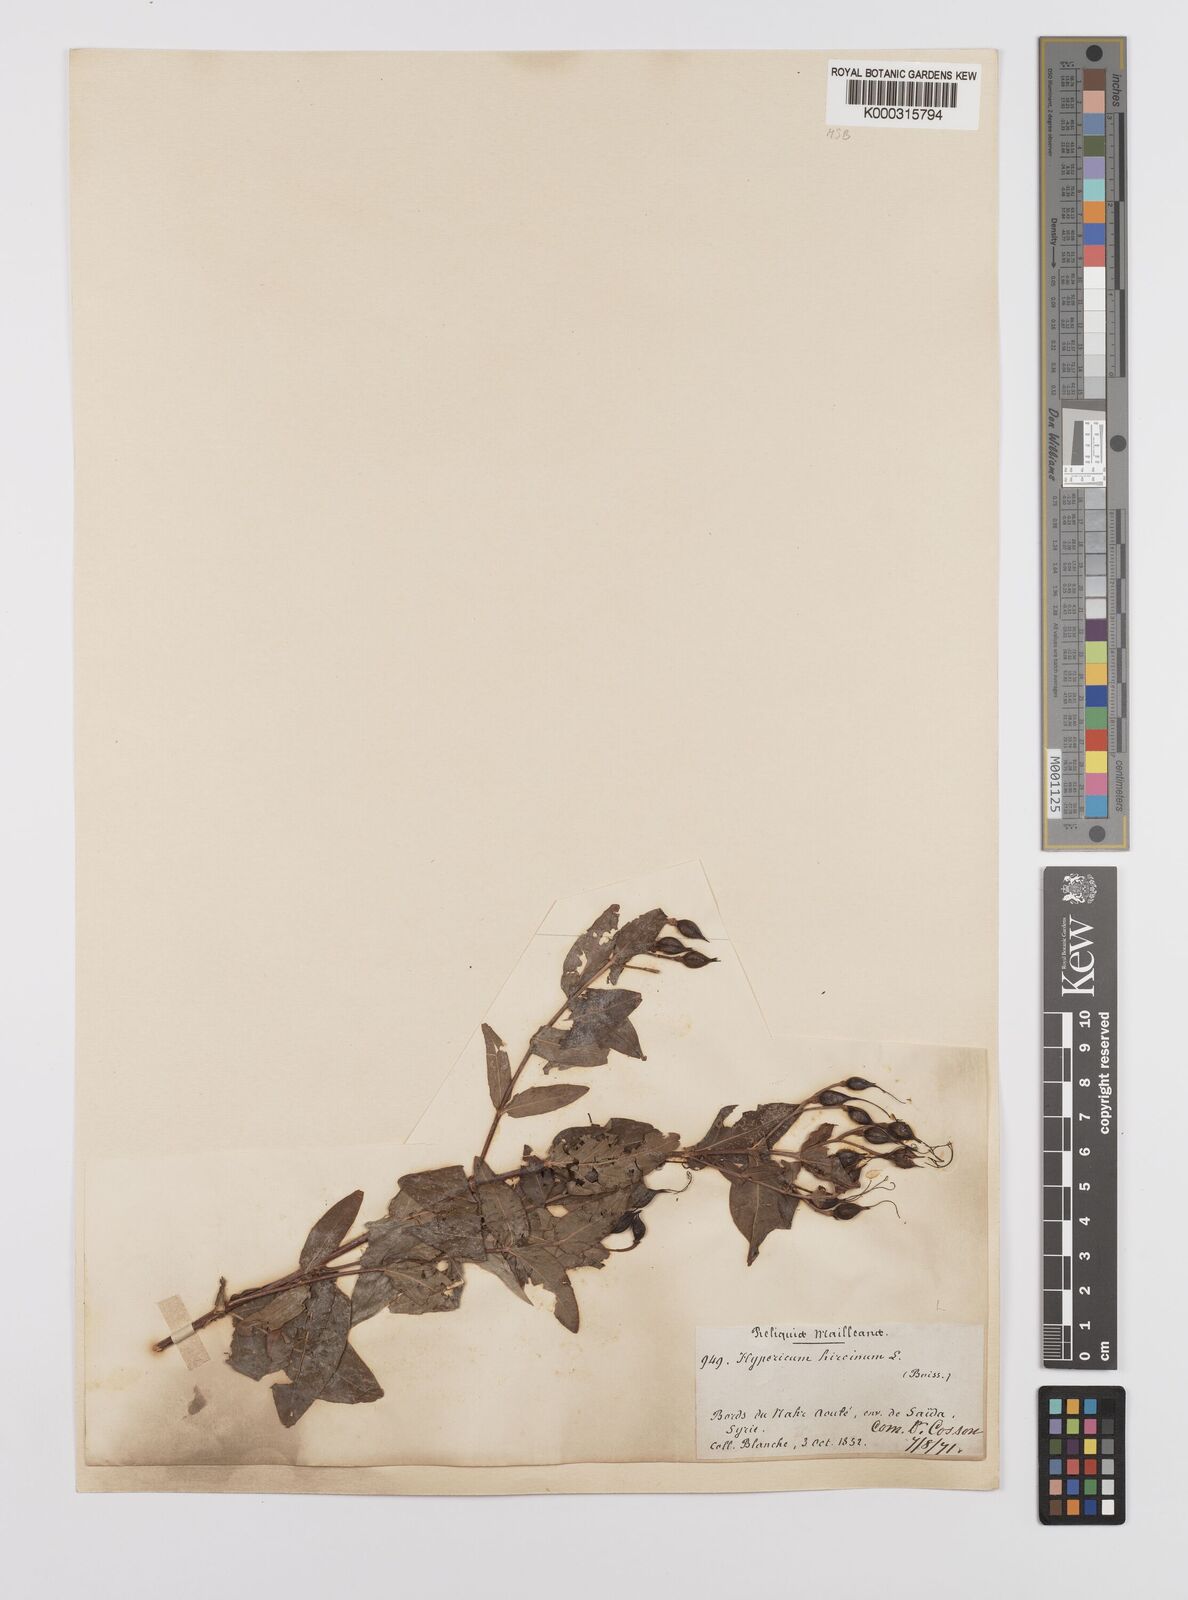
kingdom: Plantae
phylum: Tracheophyta
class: Magnoliopsida
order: Malpighiales
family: Hypericaceae
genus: Hypericum
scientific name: Hypericum hircinum
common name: Stinking tutsan
